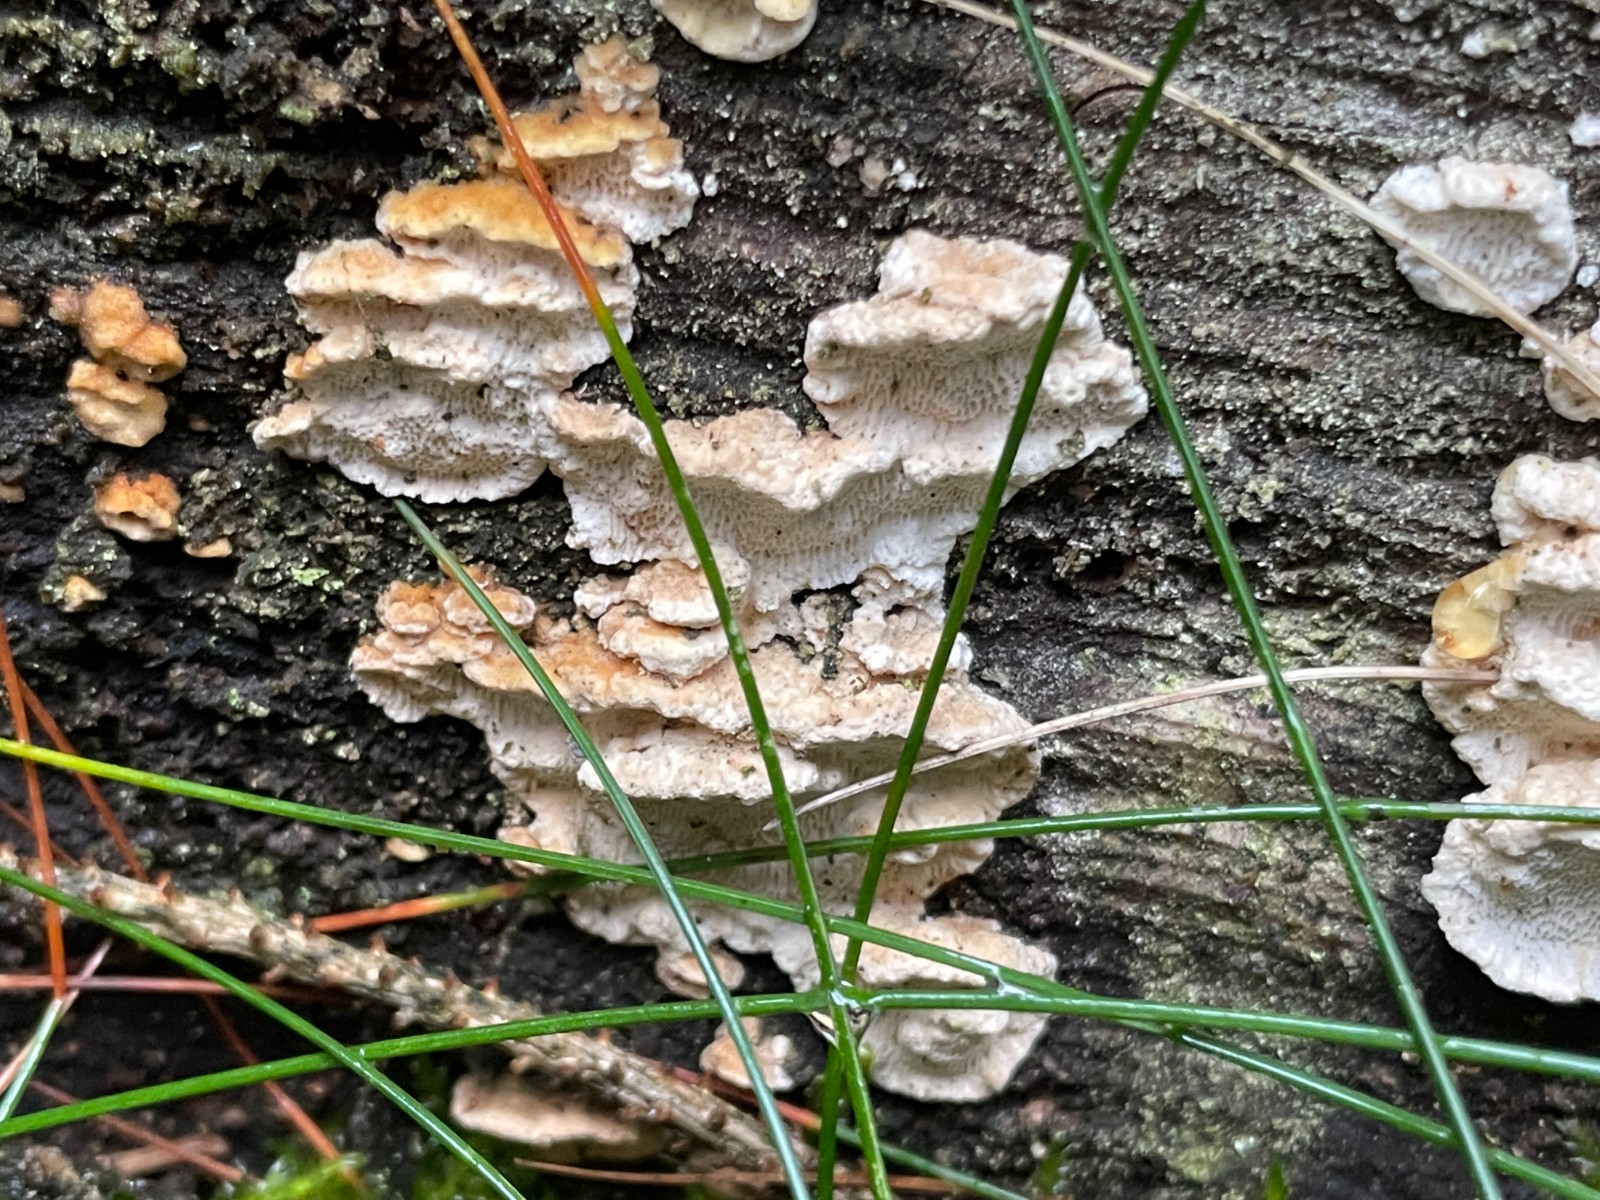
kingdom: Fungi
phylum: Basidiomycota
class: Agaricomycetes
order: Polyporales
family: Fomitopsidaceae
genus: Neoantrodia
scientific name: Neoantrodia serialis
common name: række-sejporesvamp
